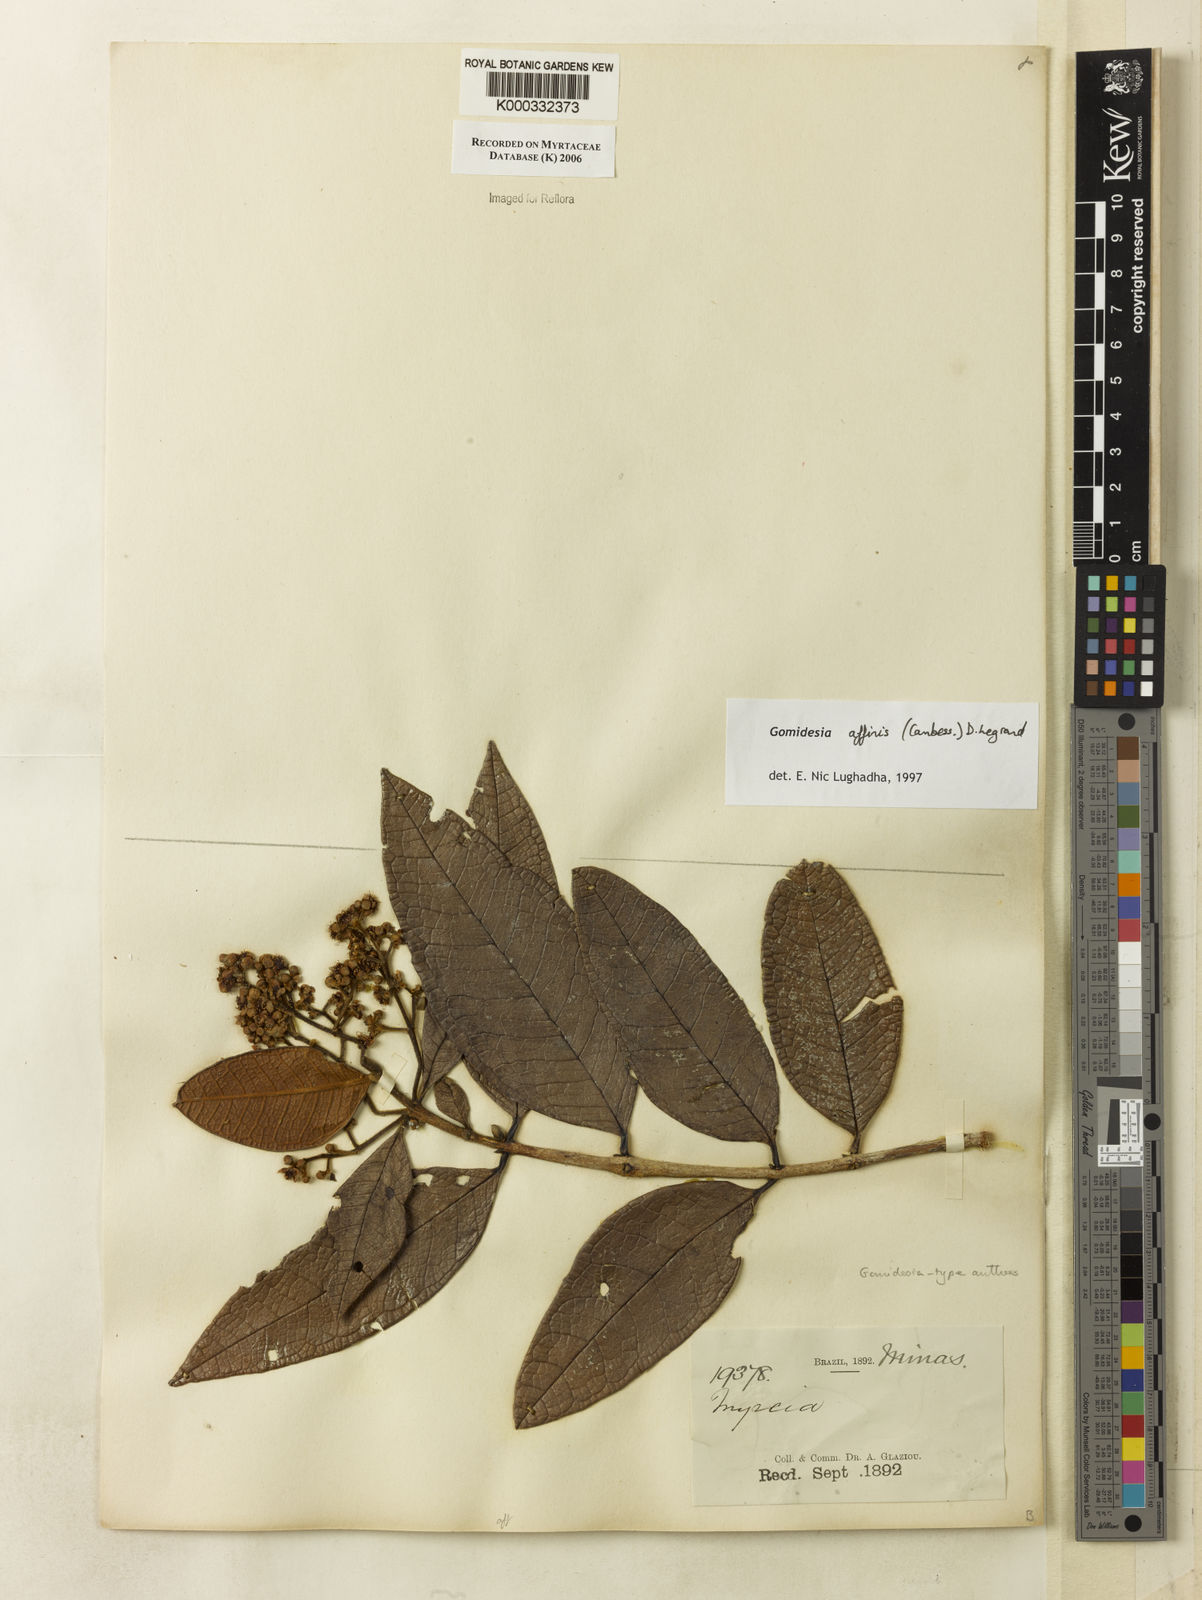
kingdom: Plantae
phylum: Tracheophyta
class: Magnoliopsida
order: Myrtales
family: Myrtaceae
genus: Myrcia
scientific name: Myrcia hebepetala
